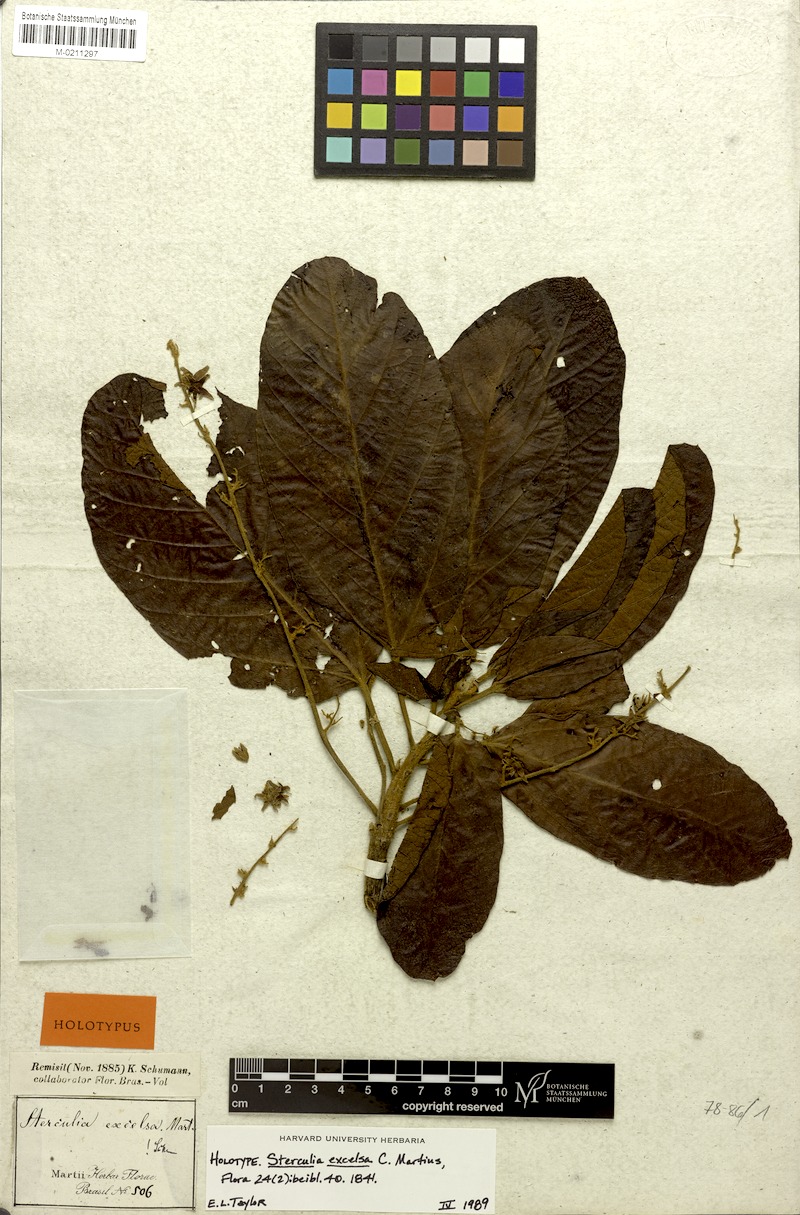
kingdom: Plantae
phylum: Tracheophyta
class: Magnoliopsida
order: Malvales
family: Malvaceae
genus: Sterculia
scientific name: Sterculia excelsa
